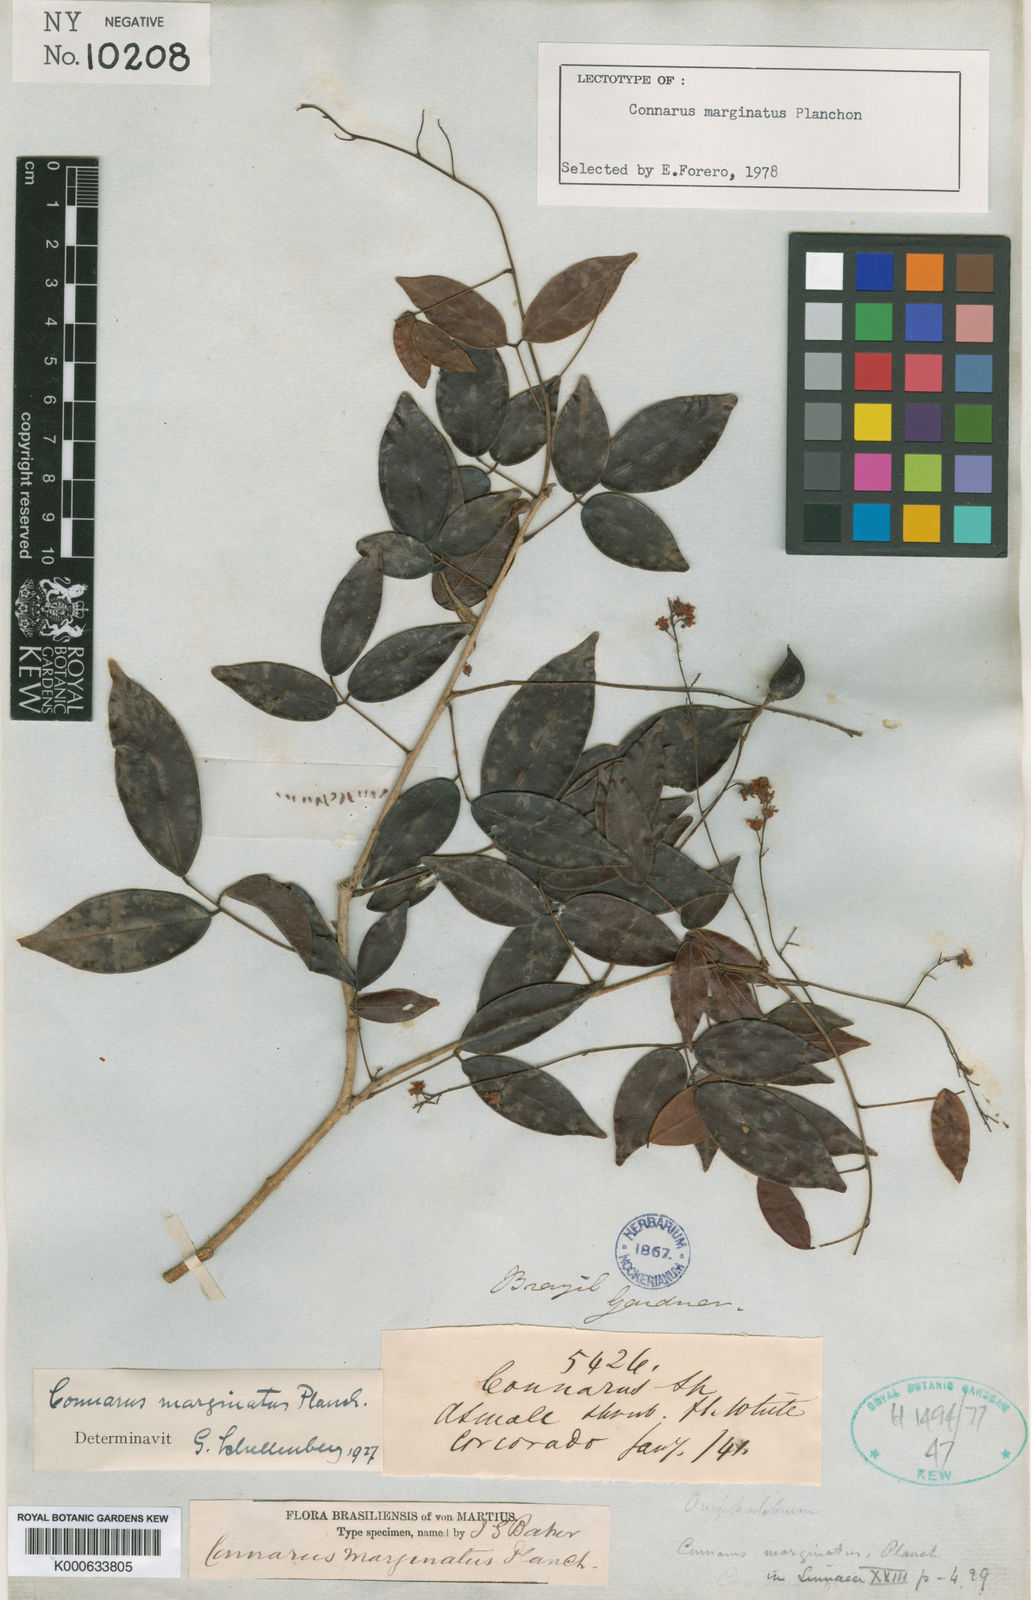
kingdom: Plantae
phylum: Tracheophyta
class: Magnoliopsida
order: Oxalidales
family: Connaraceae
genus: Connarus
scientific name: Connarus marginatus
